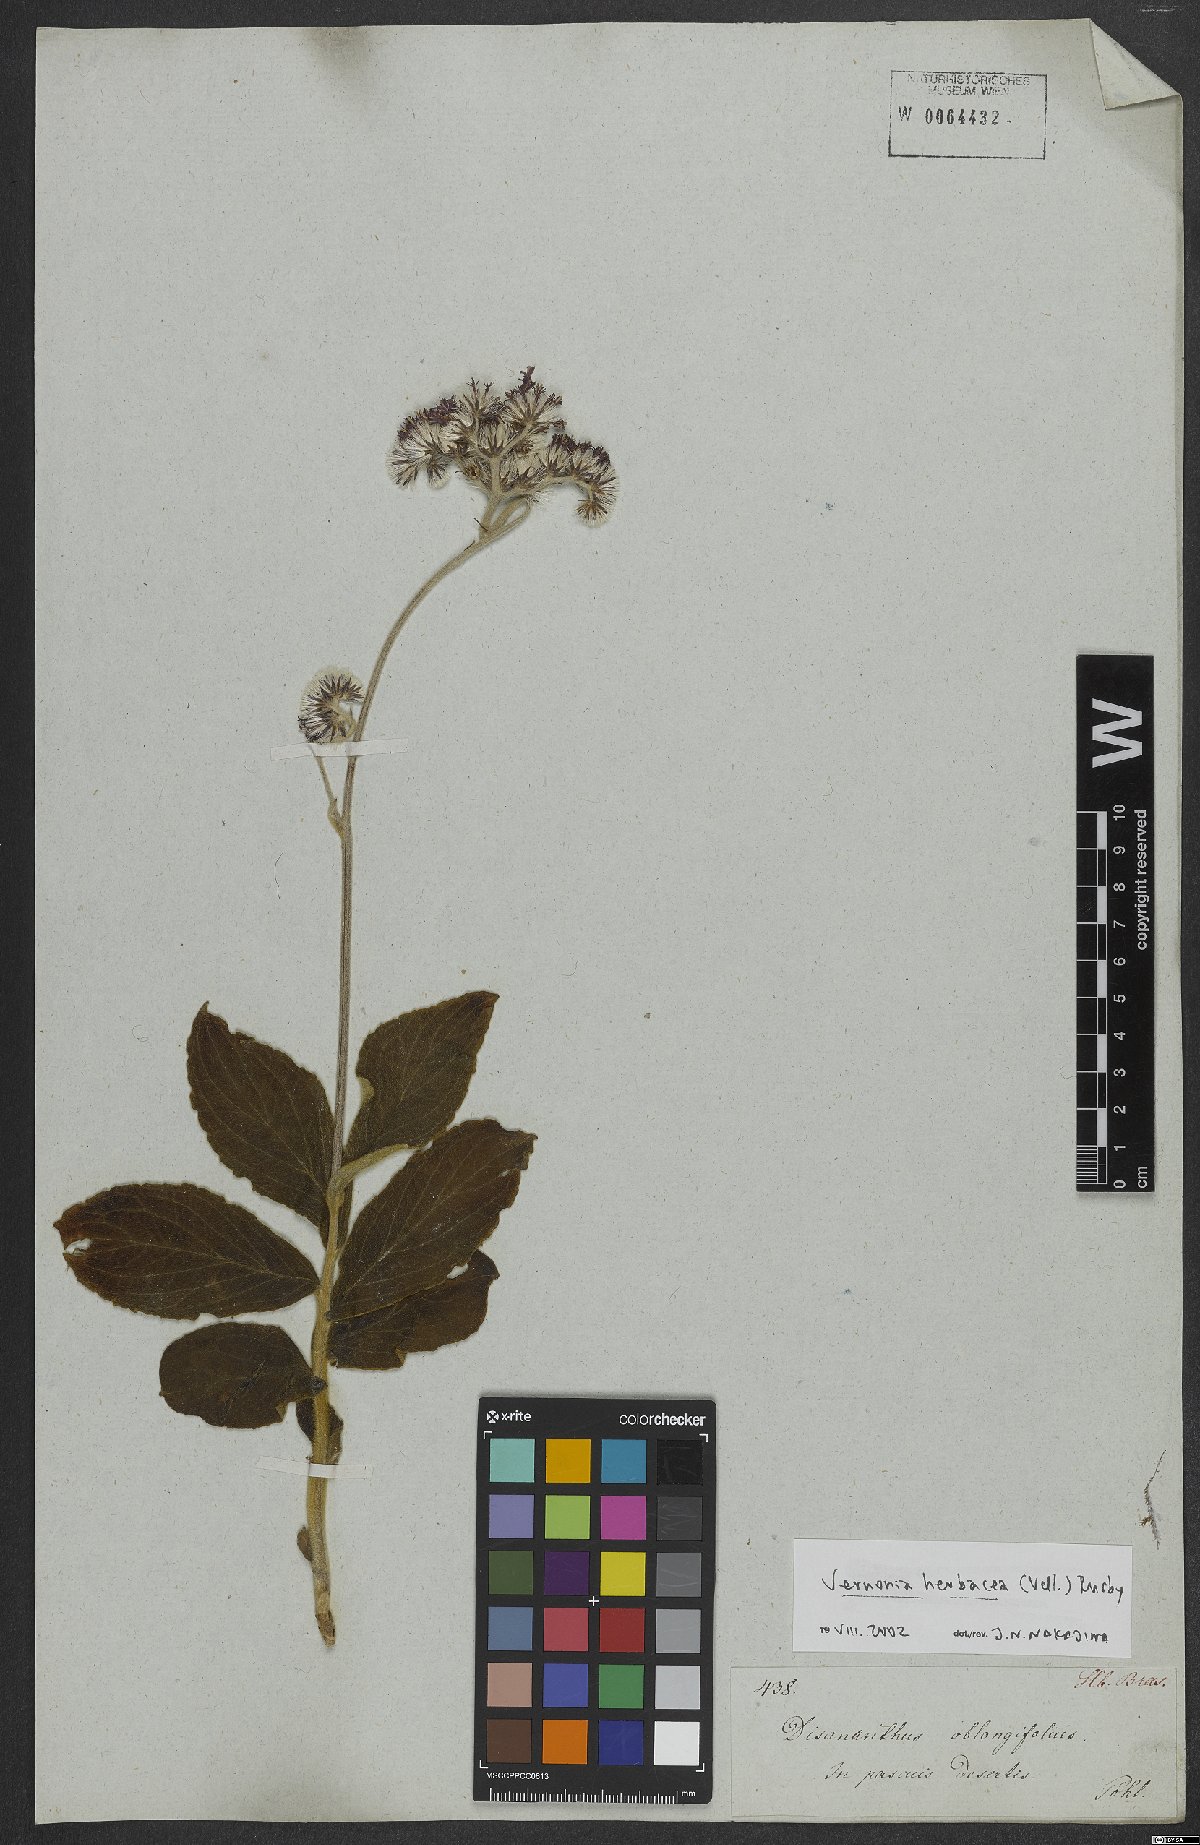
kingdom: Plantae
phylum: Tracheophyta
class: Magnoliopsida
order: Asterales
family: Asteraceae
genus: Chrysolaena
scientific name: Chrysolaena obovata
